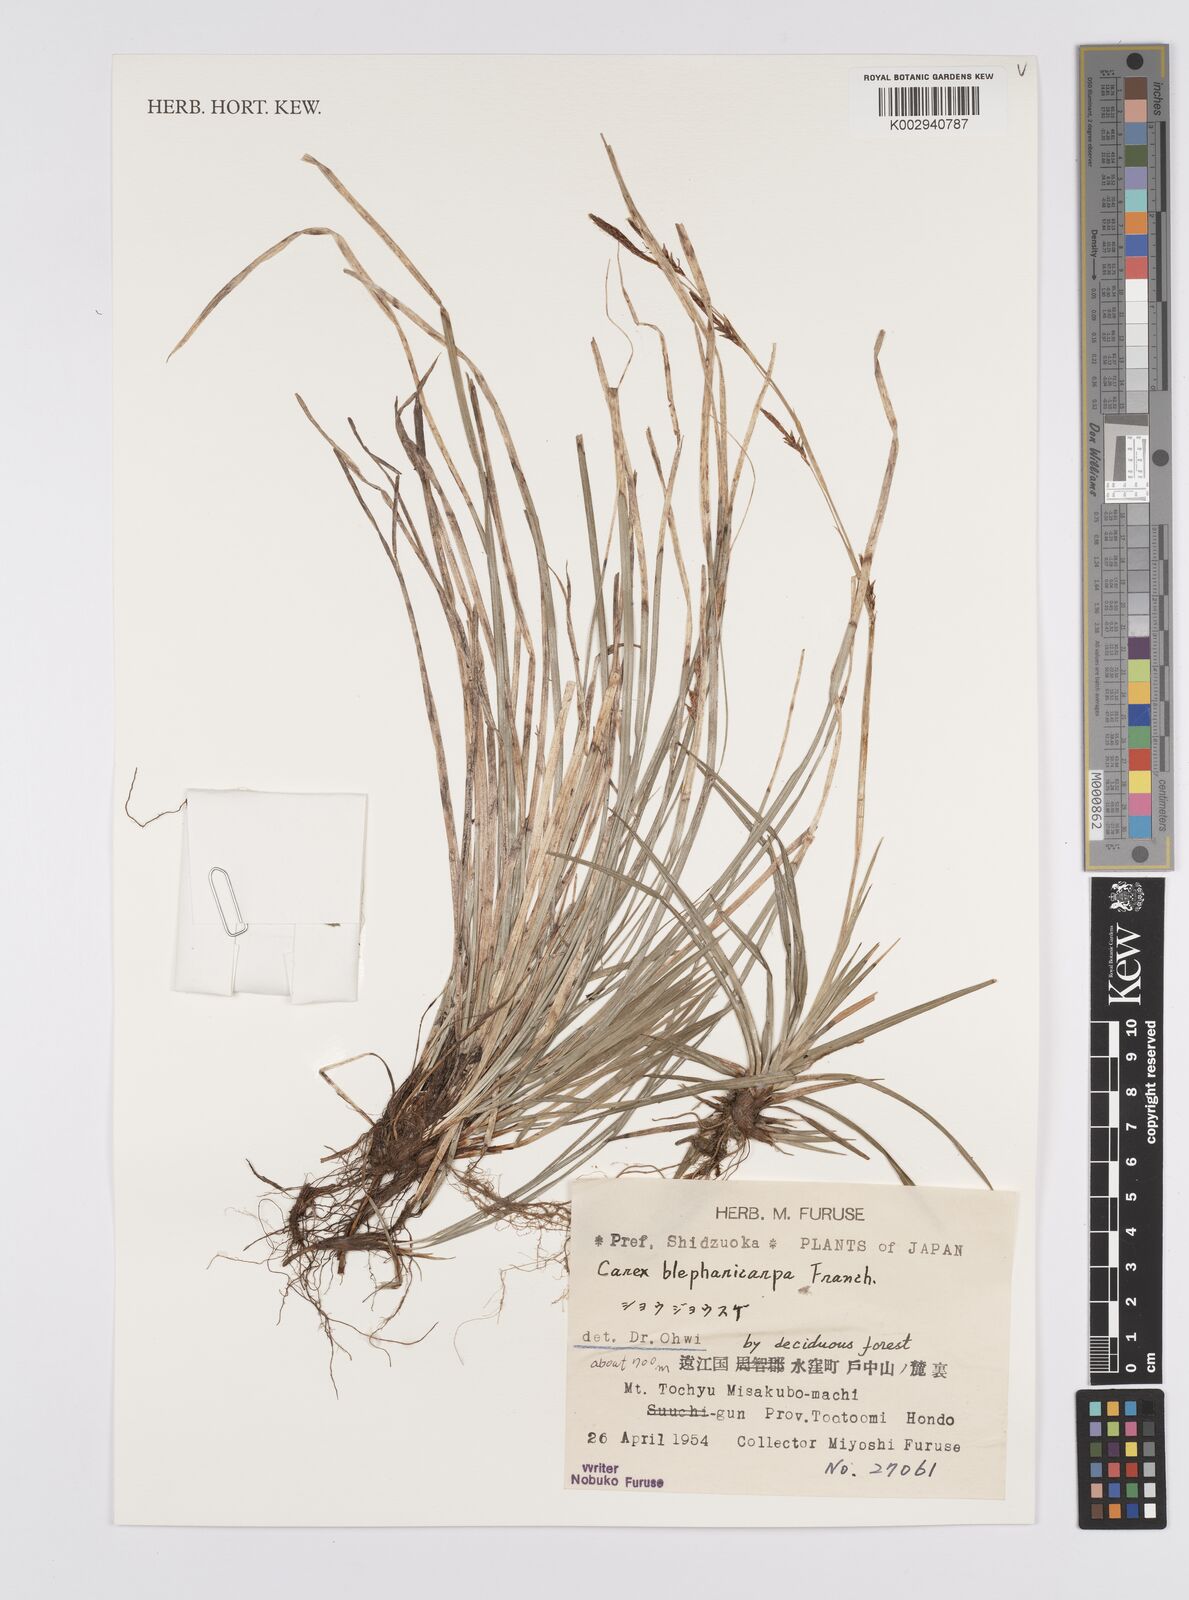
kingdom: Plantae
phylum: Tracheophyta
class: Liliopsida
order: Poales
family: Cyperaceae
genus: Carex
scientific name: Carex blepharicarpa
